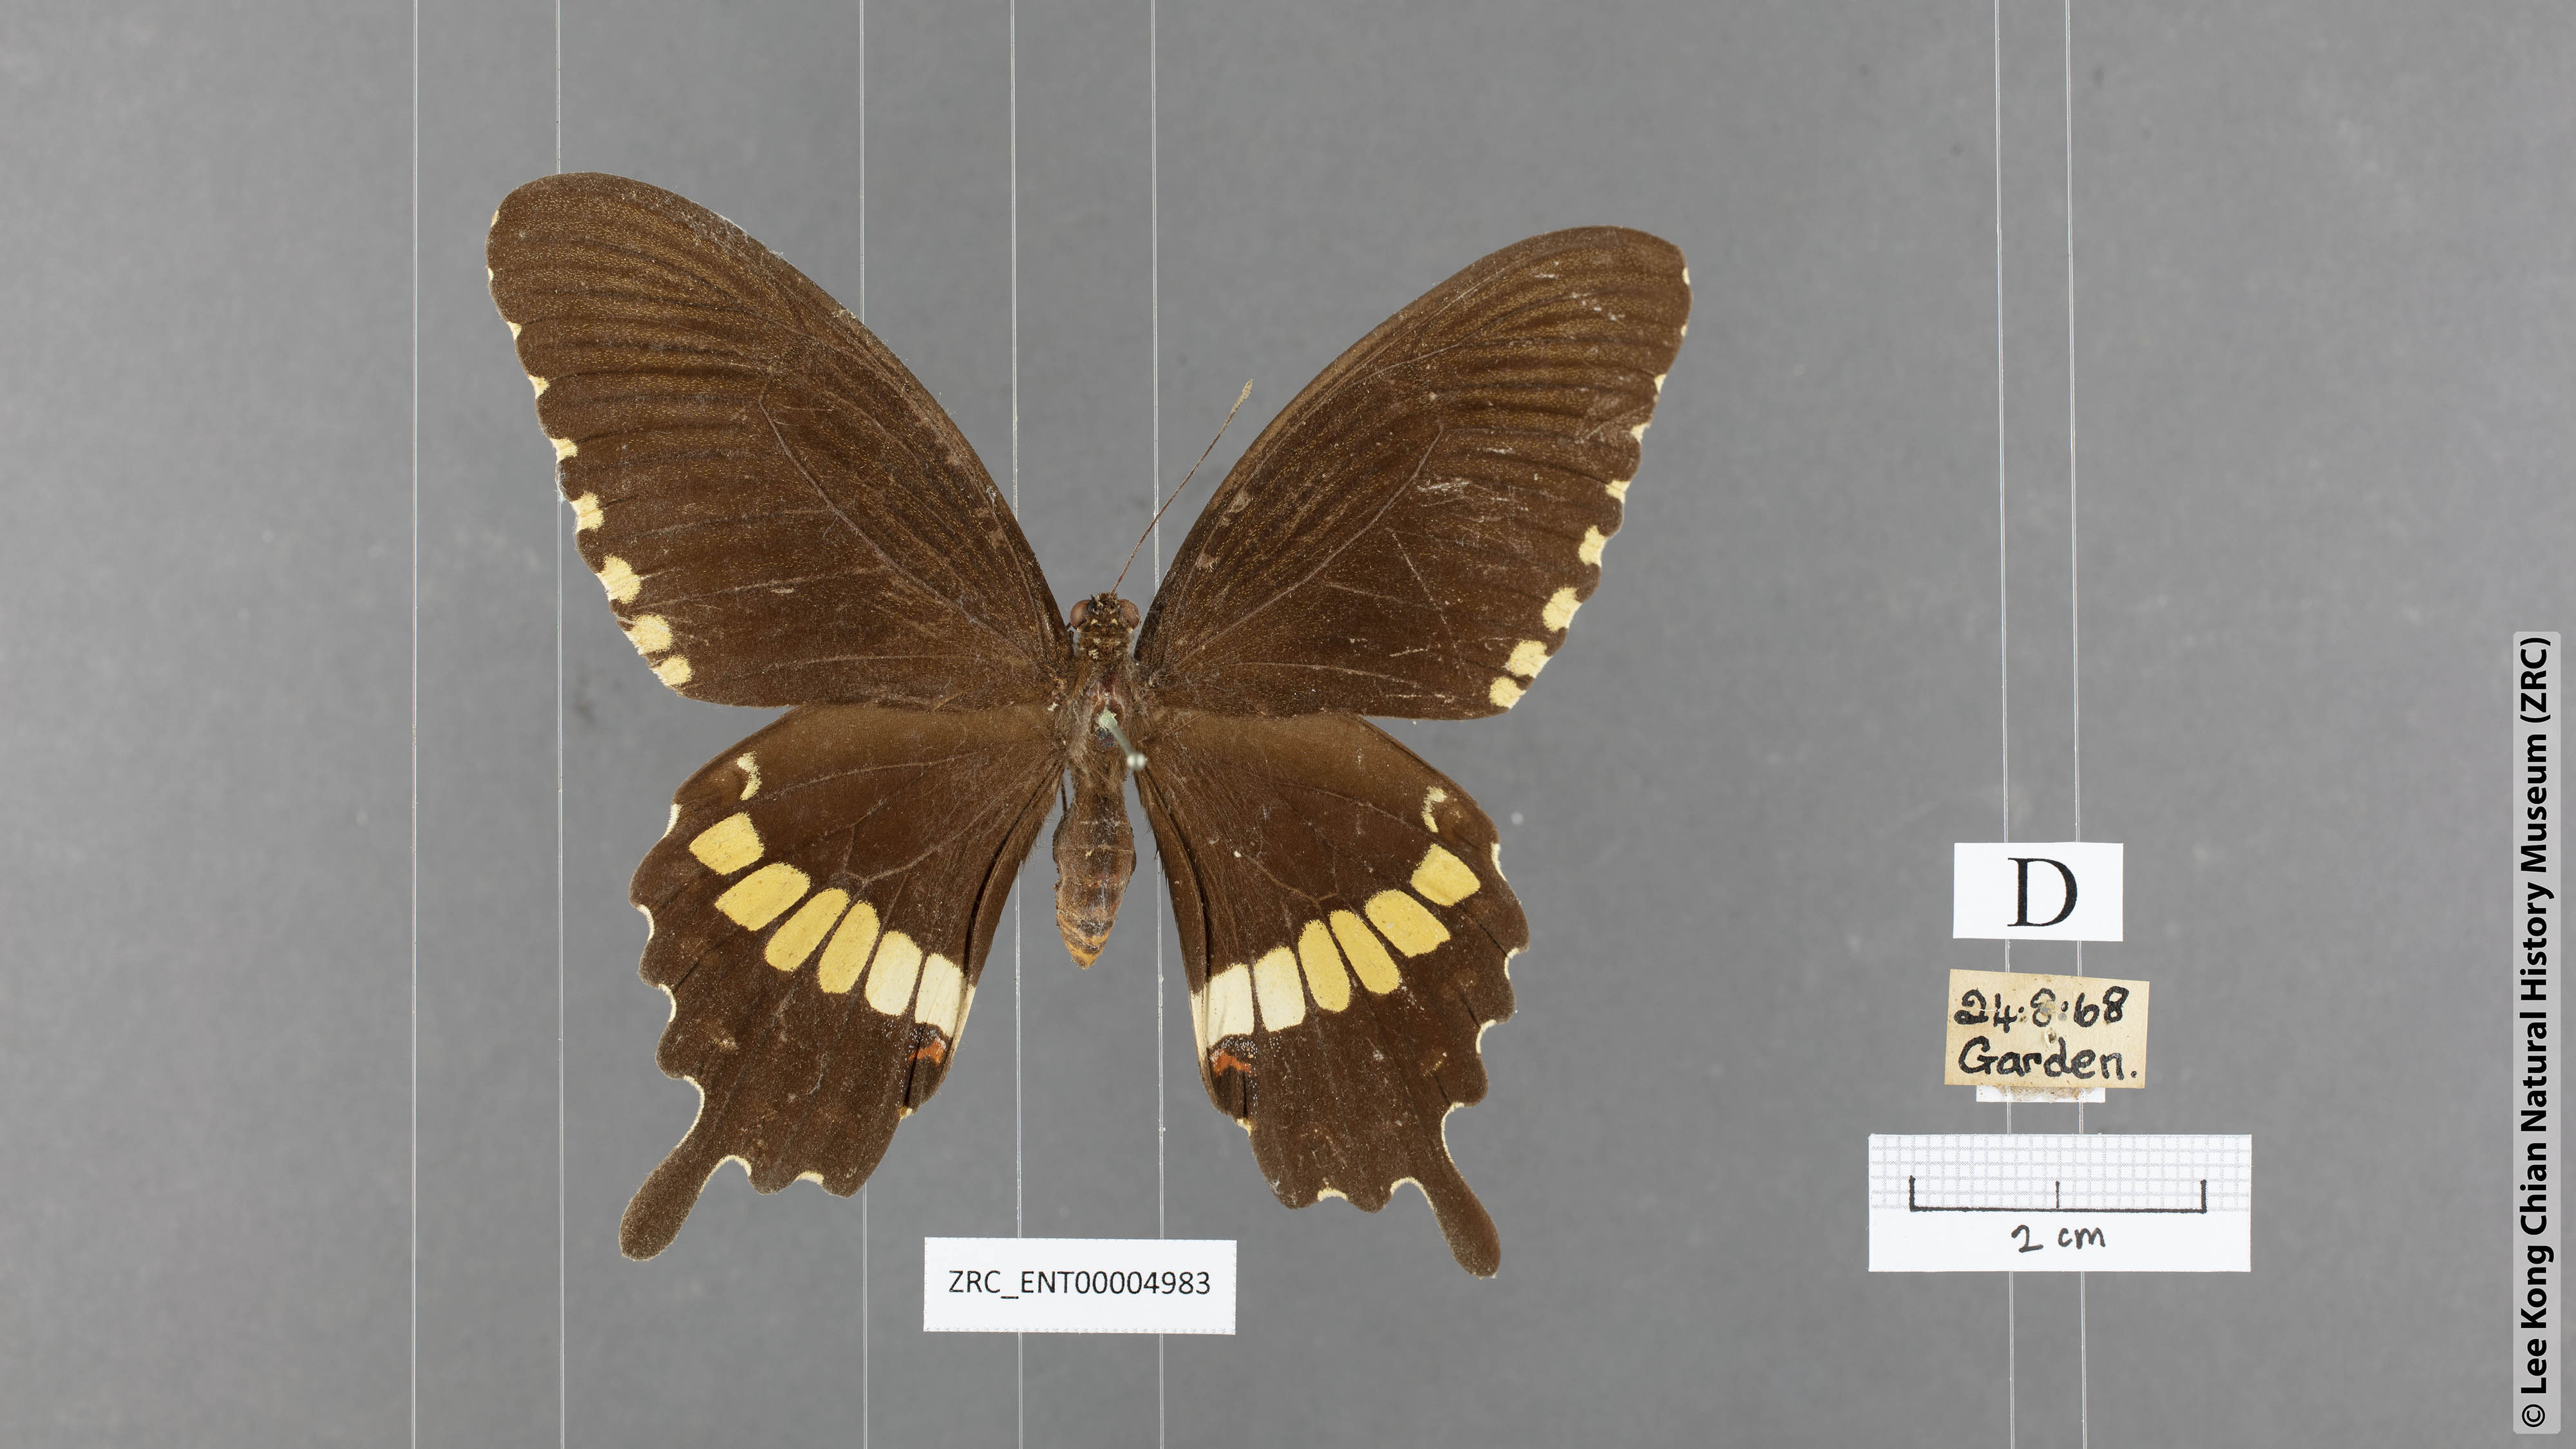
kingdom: Animalia
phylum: Arthropoda
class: Insecta
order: Lepidoptera
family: Papilionidae
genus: Papilio
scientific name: Papilio polytes
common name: Common mormon
